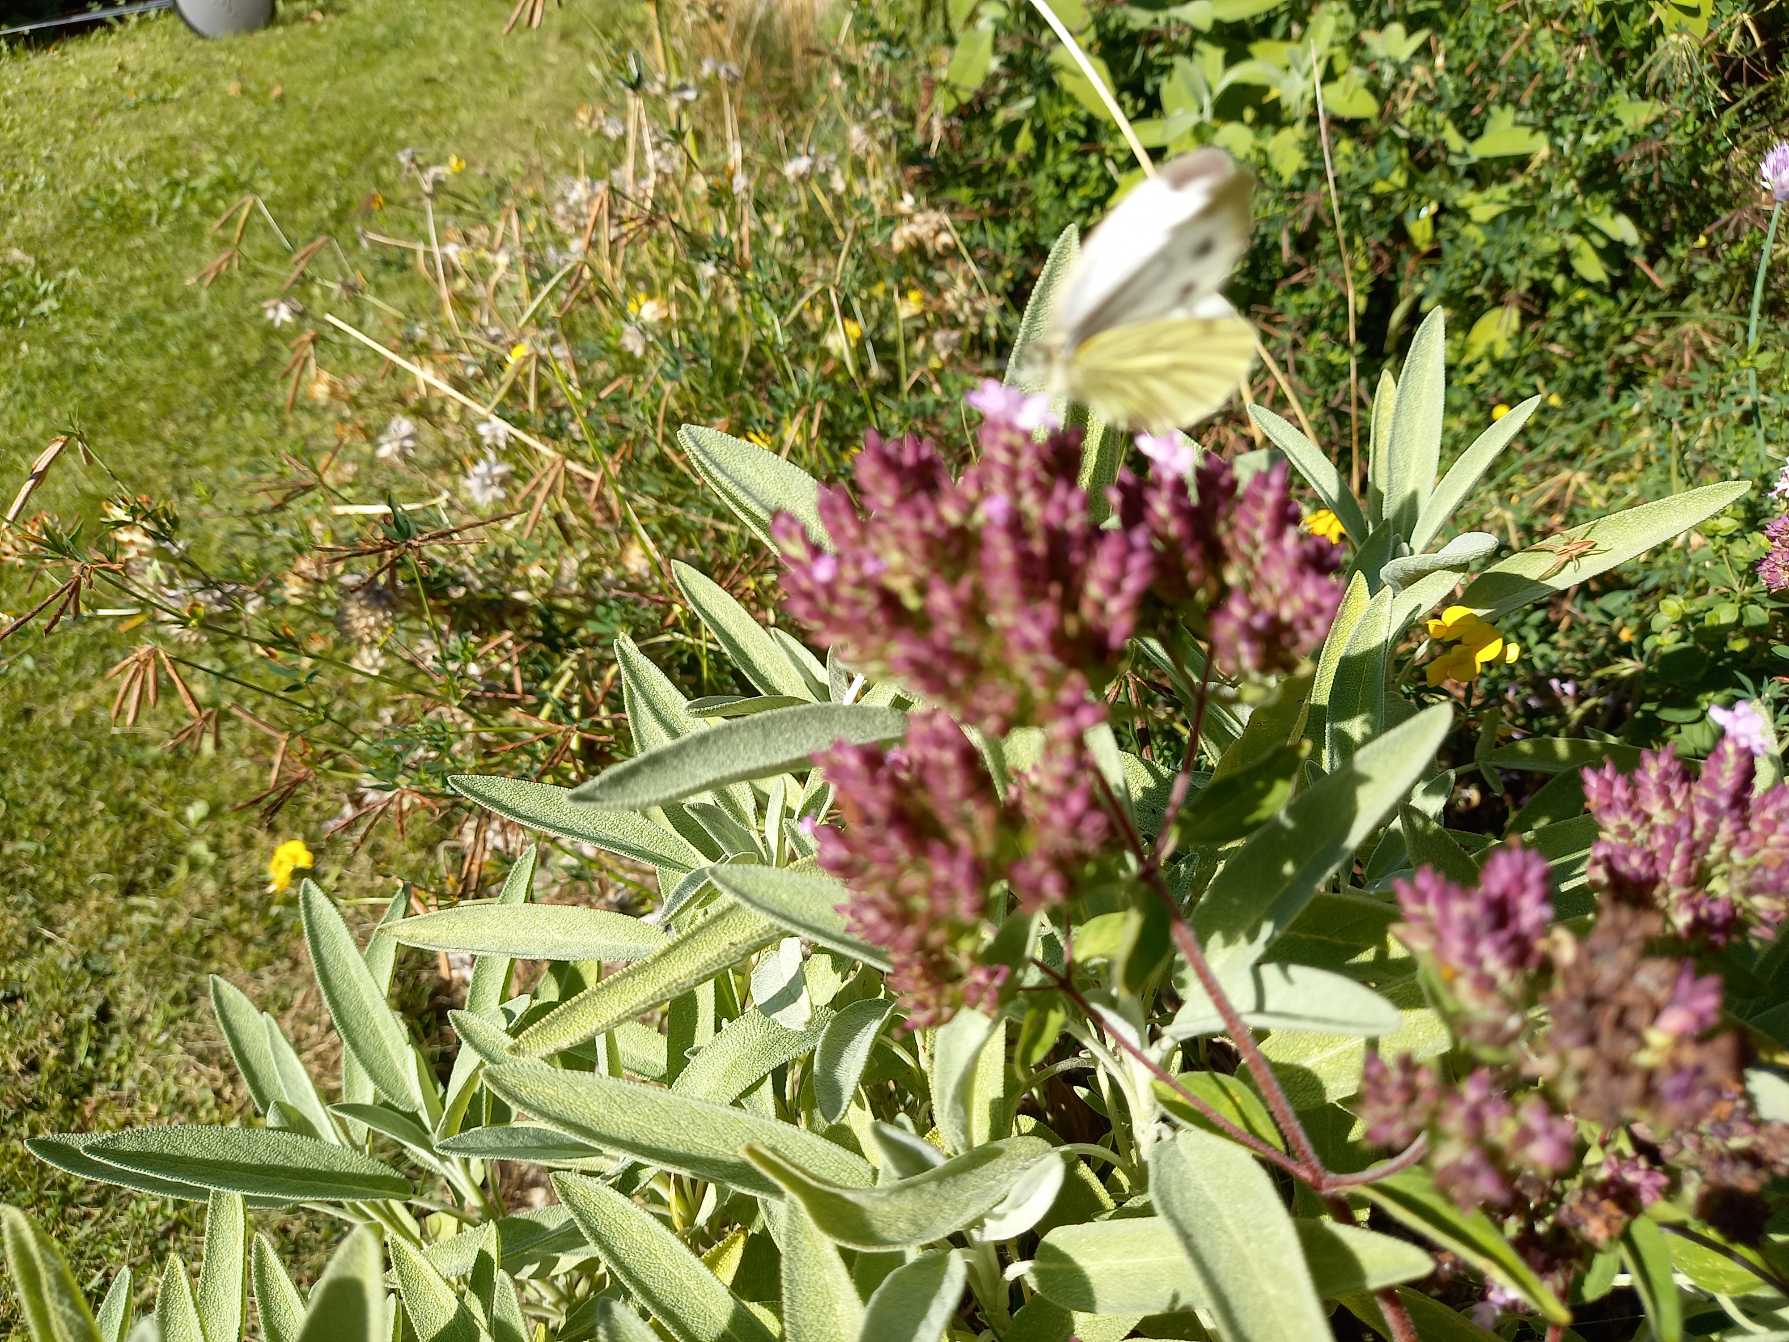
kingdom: Animalia
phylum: Arthropoda
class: Insecta
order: Lepidoptera
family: Pieridae
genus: Pieris
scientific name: Pieris napi
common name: Grønåret kålsommerfugl
